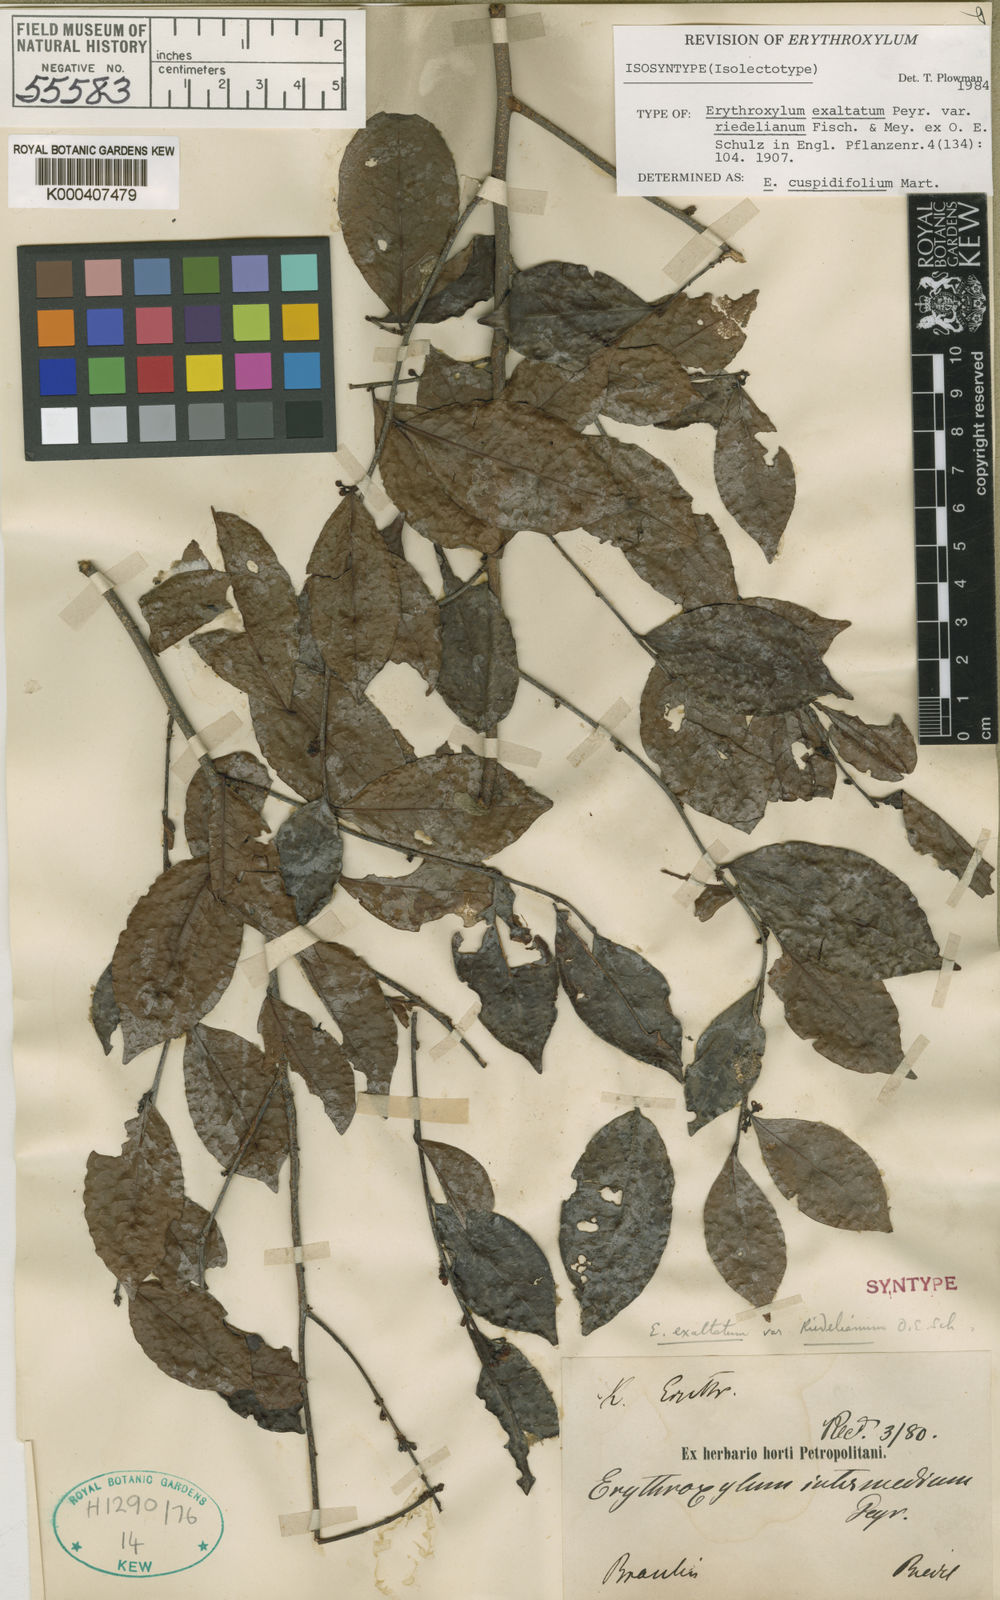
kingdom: Plantae
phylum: Tracheophyta
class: Magnoliopsida
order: Malpighiales
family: Erythroxylaceae
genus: Erythroxylum
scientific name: Erythroxylum cuspidifolium
